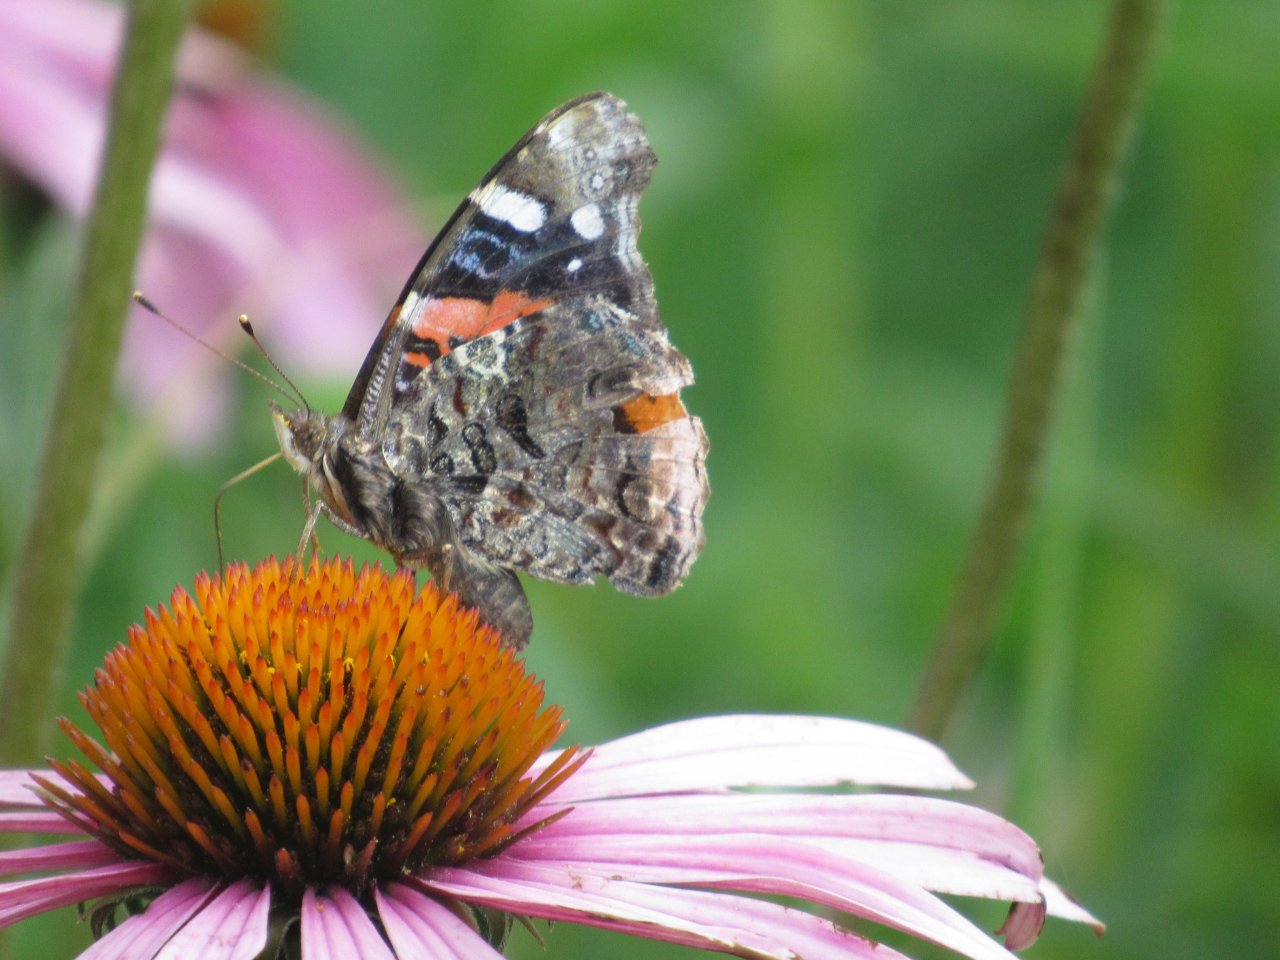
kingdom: Animalia
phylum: Arthropoda
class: Insecta
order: Lepidoptera
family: Nymphalidae
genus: Vanessa
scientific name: Vanessa atalanta
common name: Red Admiral
